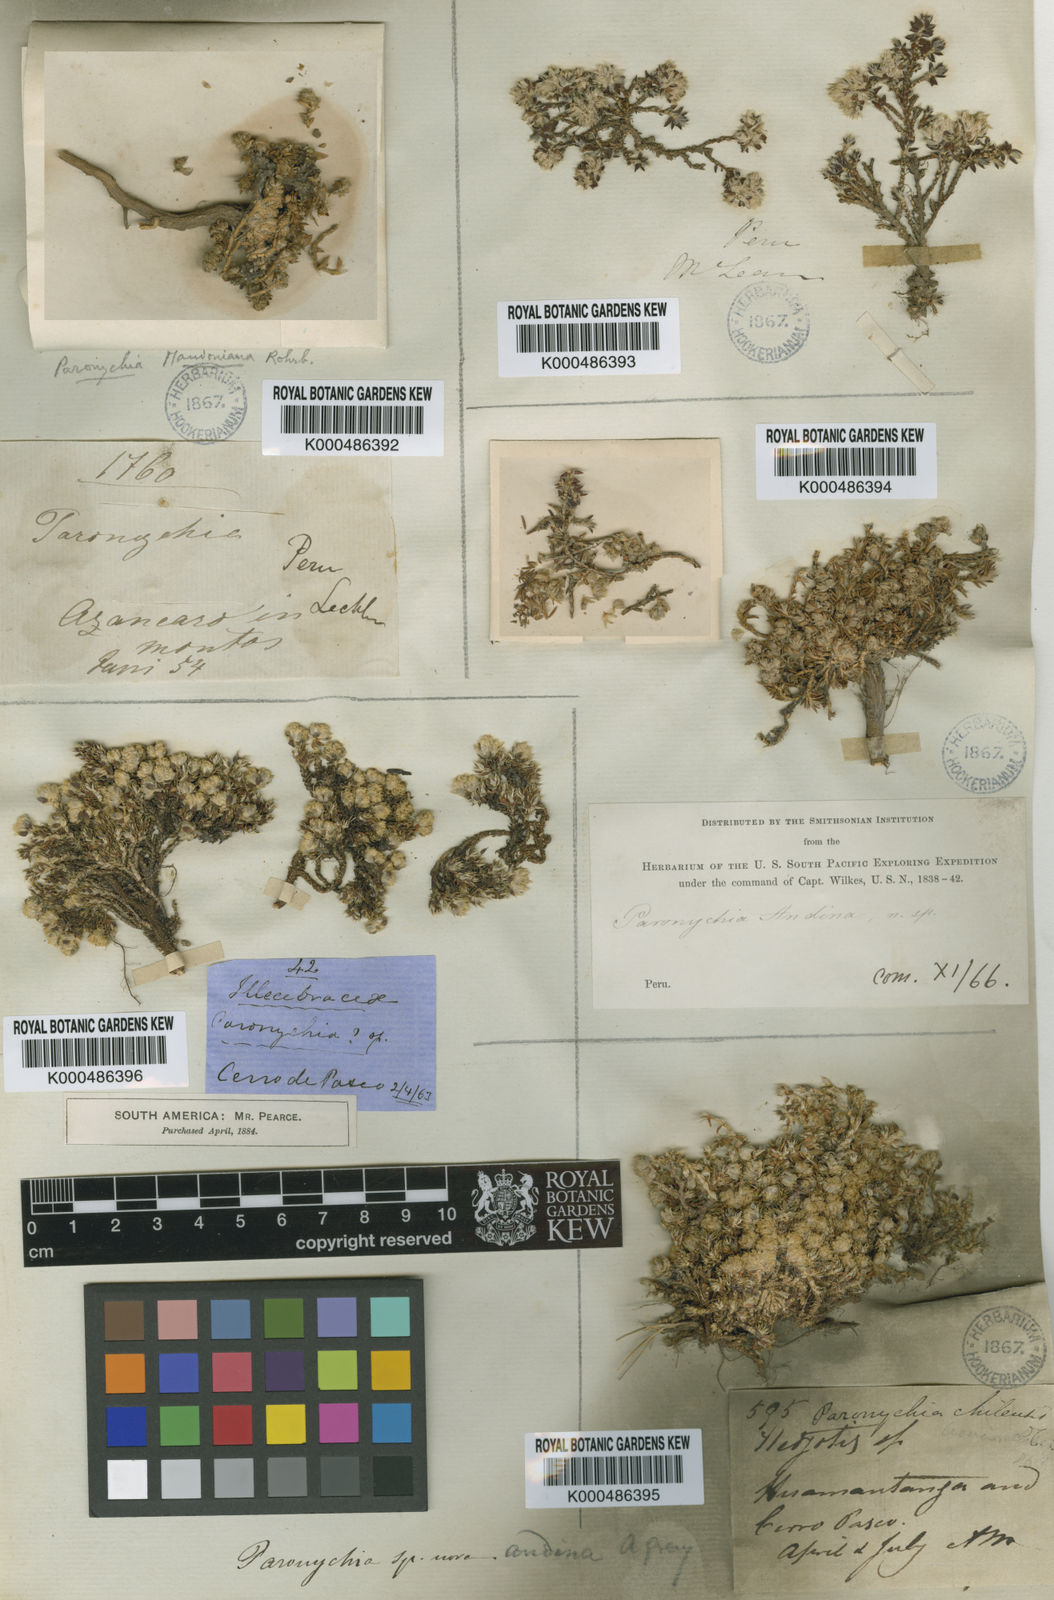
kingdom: Plantae
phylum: Tracheophyta
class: Magnoliopsida
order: Caryophyllales
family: Caryophyllaceae
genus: Paronychia
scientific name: Paronychia andina
